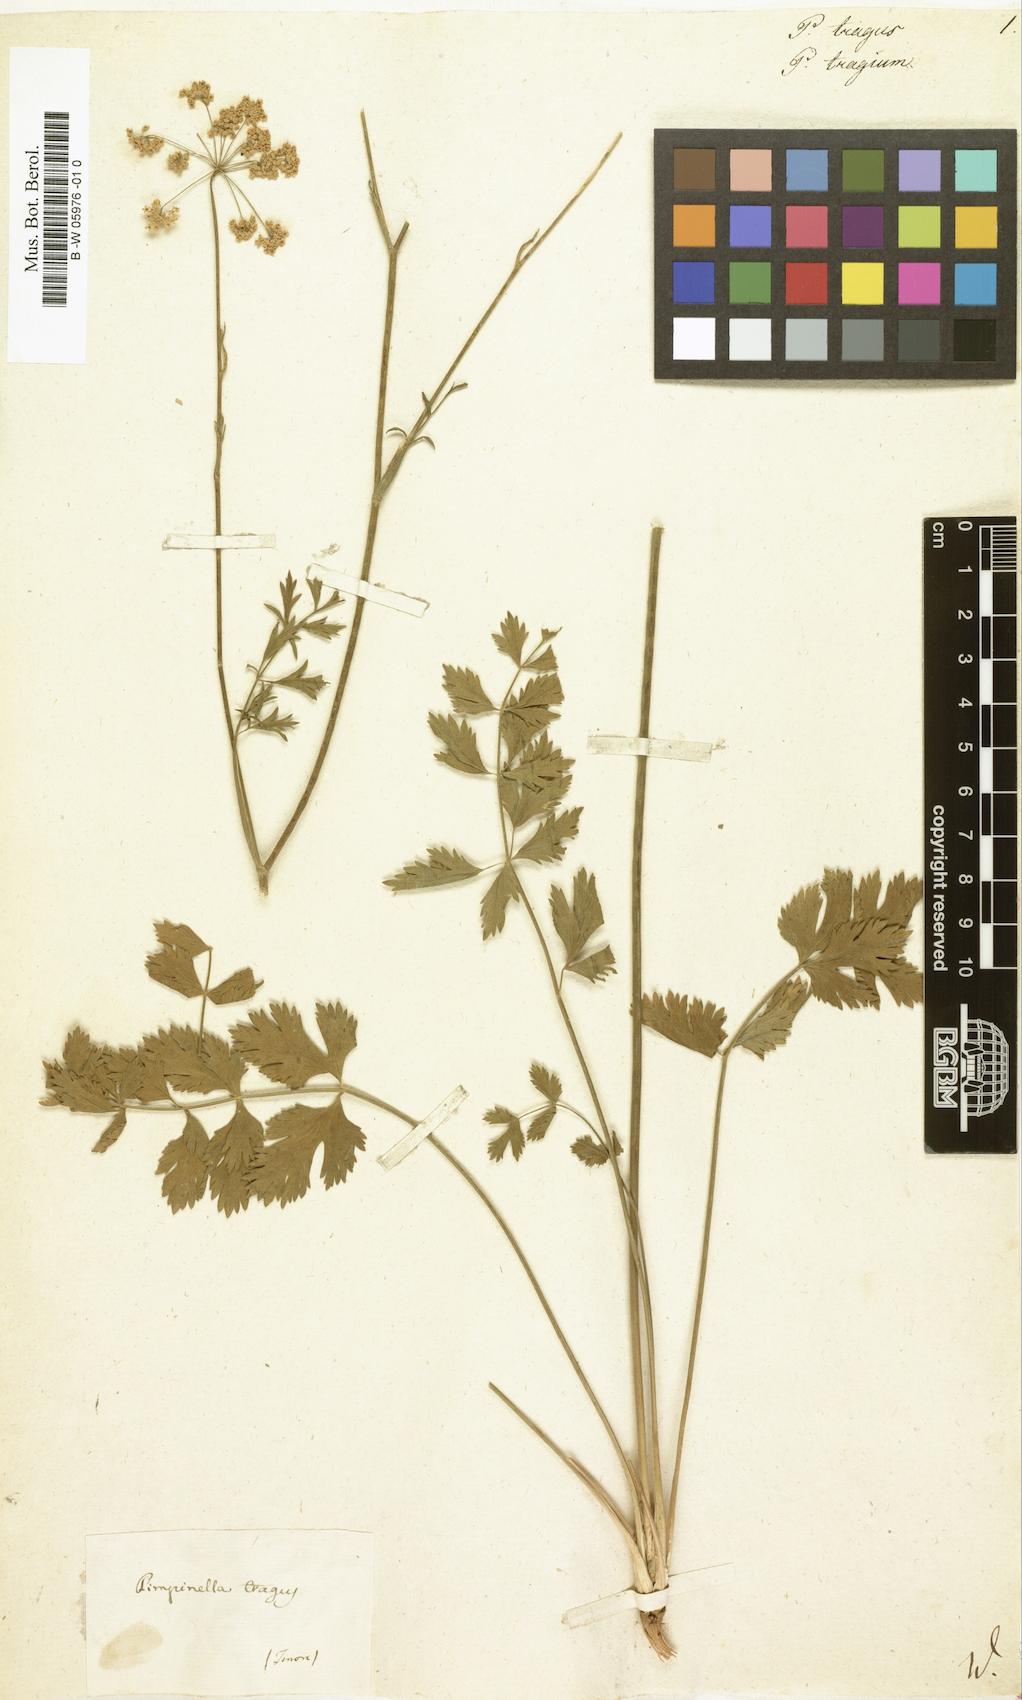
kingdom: Plantae
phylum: Tracheophyta
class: Magnoliopsida
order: Apiales
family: Apiaceae
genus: Pimpinella
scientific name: Pimpinella tragium
